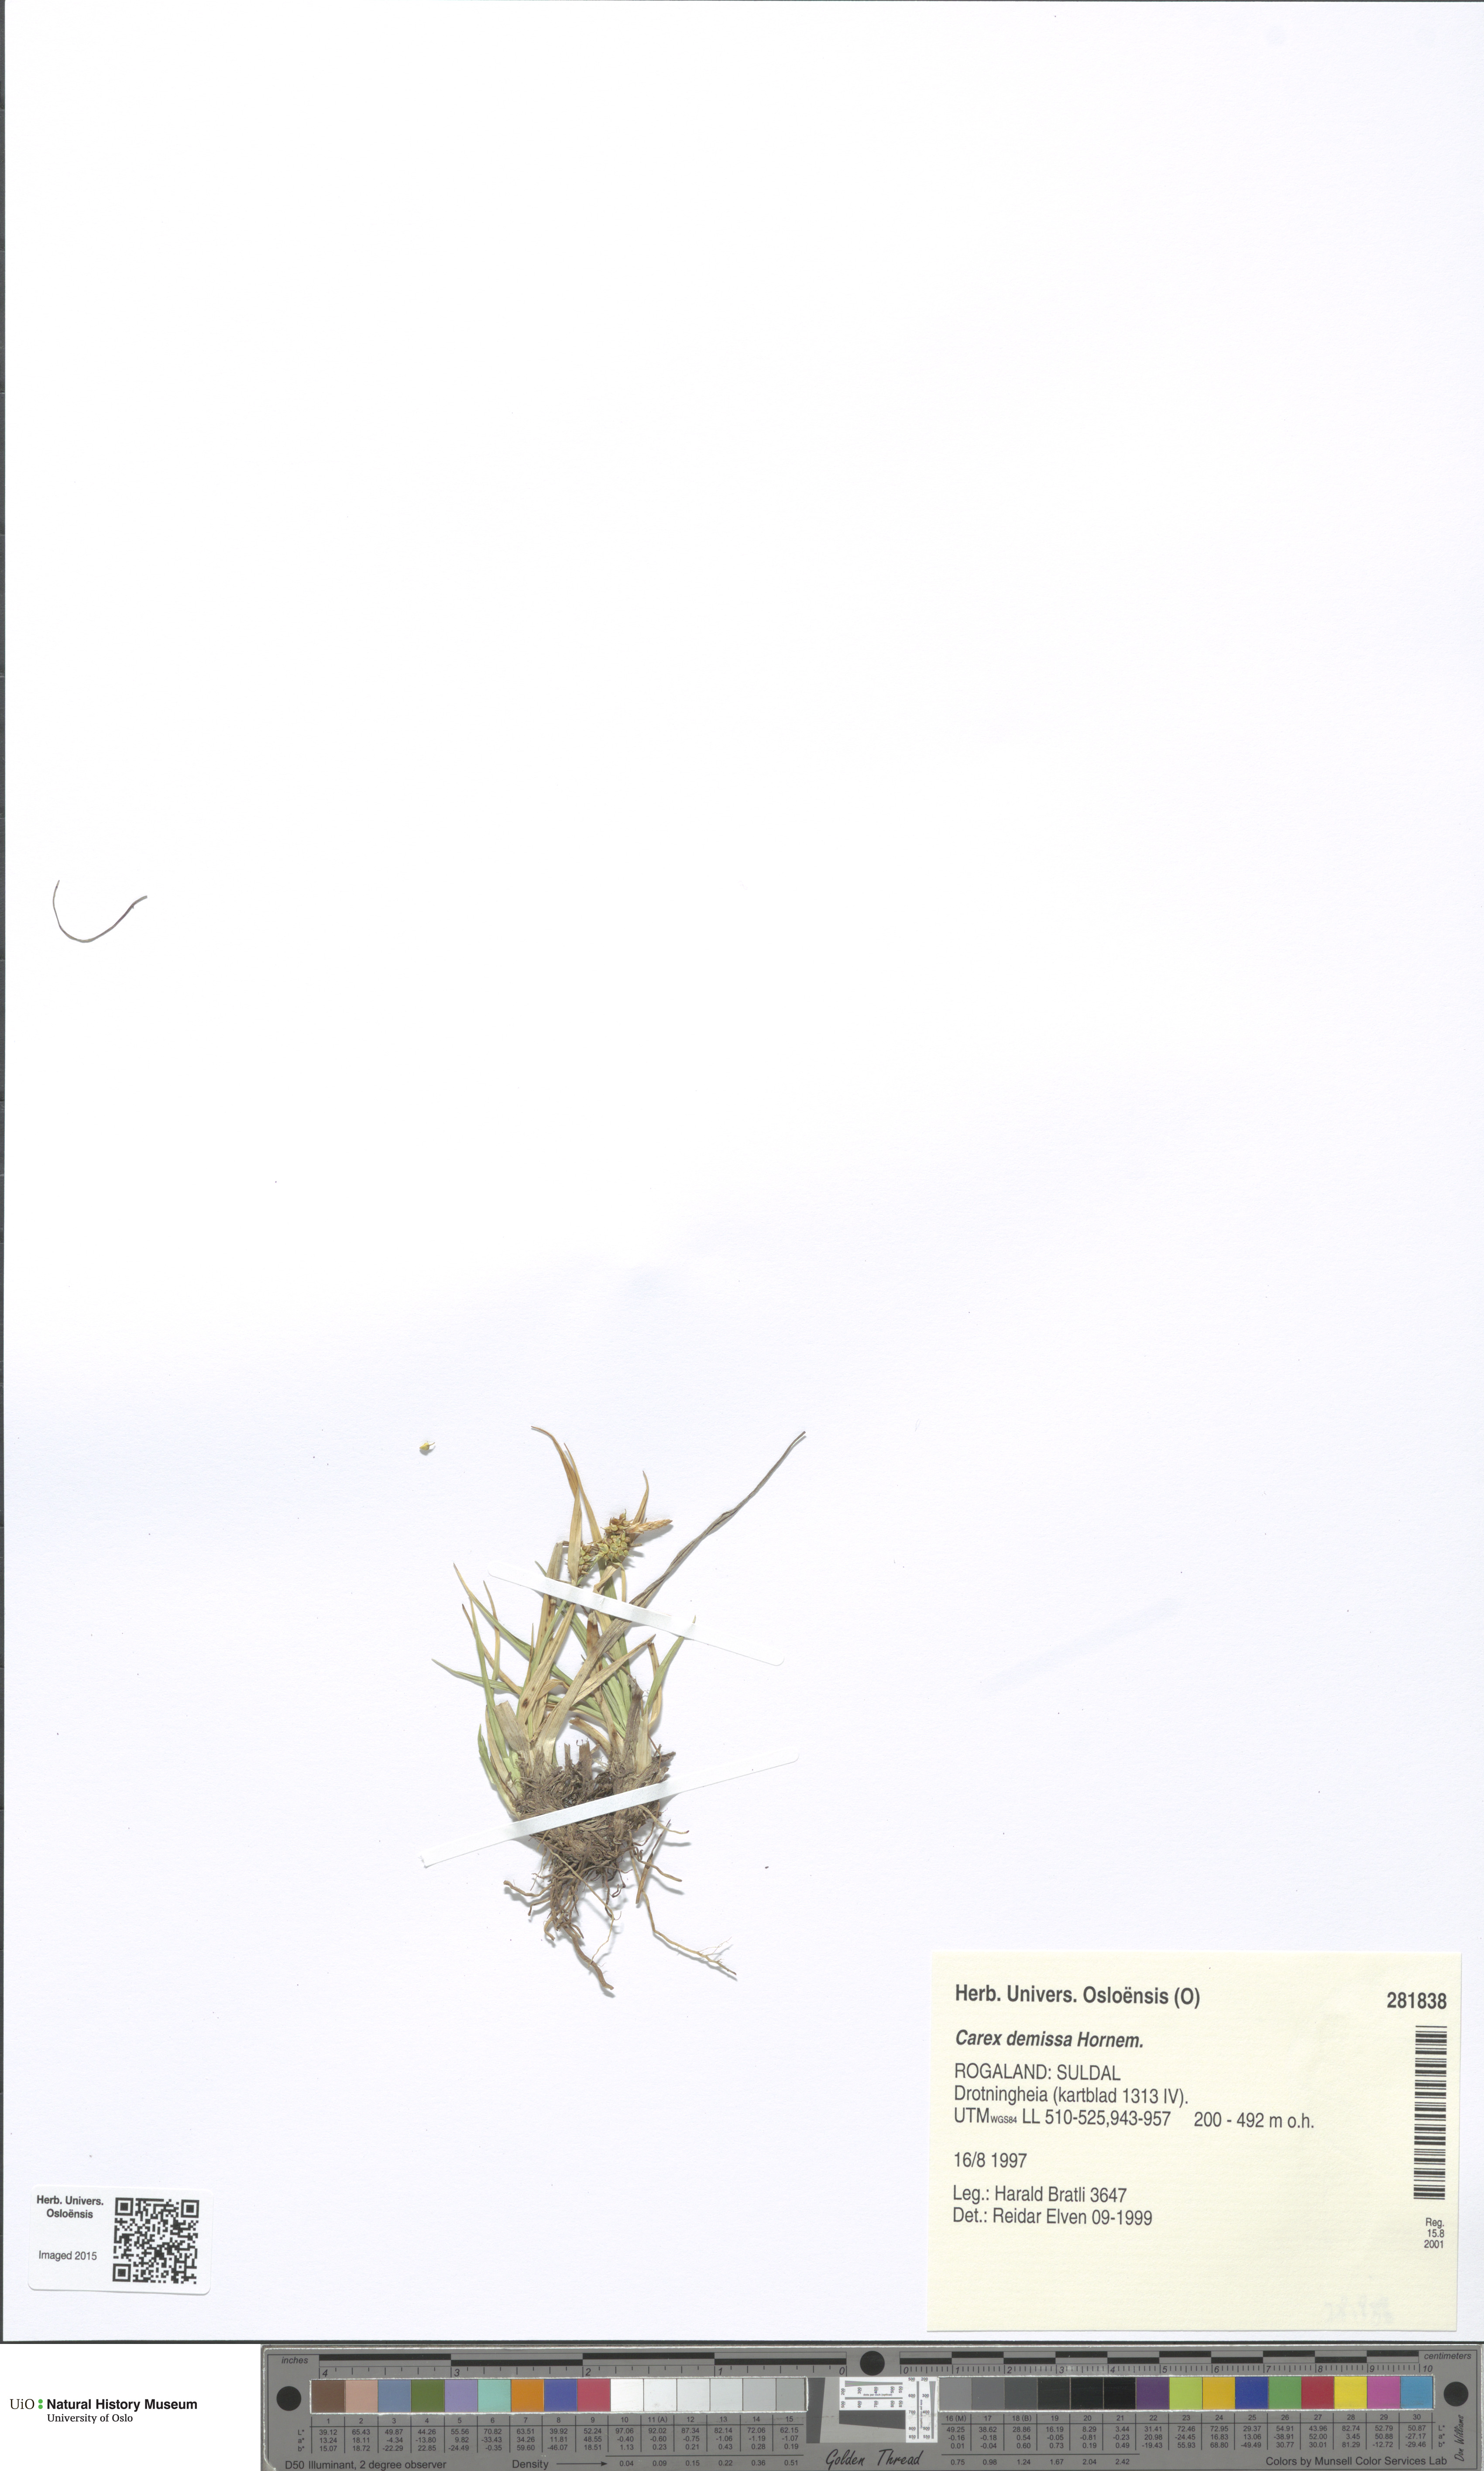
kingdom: Plantae
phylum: Tracheophyta
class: Liliopsida
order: Poales
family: Cyperaceae
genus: Carex
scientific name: Carex demissa
